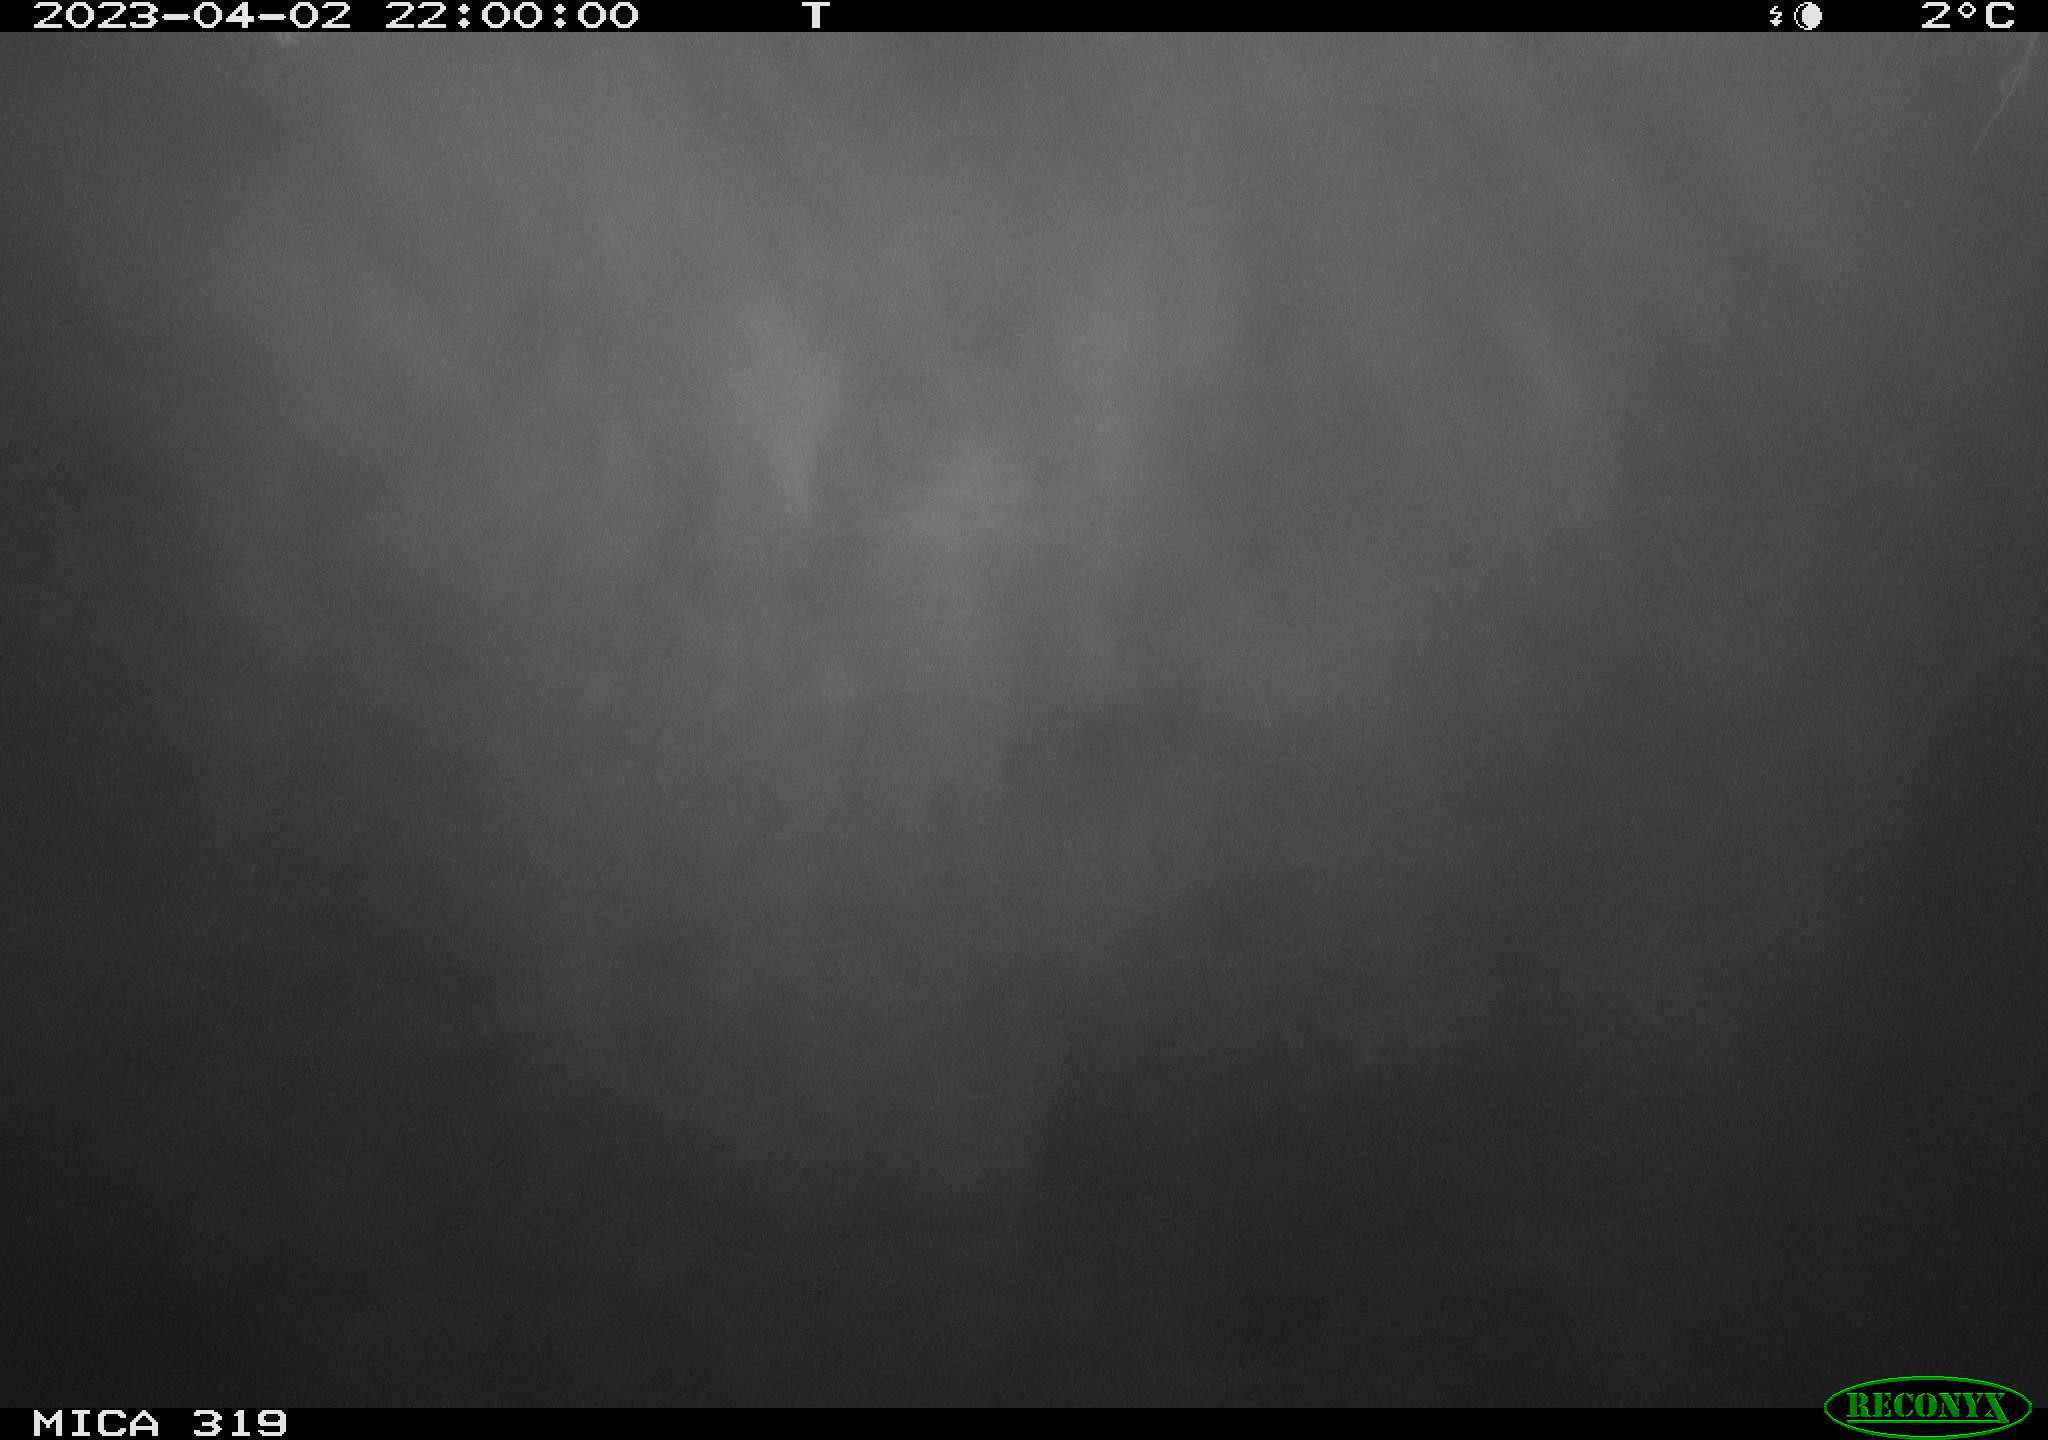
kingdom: Animalia
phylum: Chordata
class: Mammalia
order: Rodentia
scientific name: Rodentia
